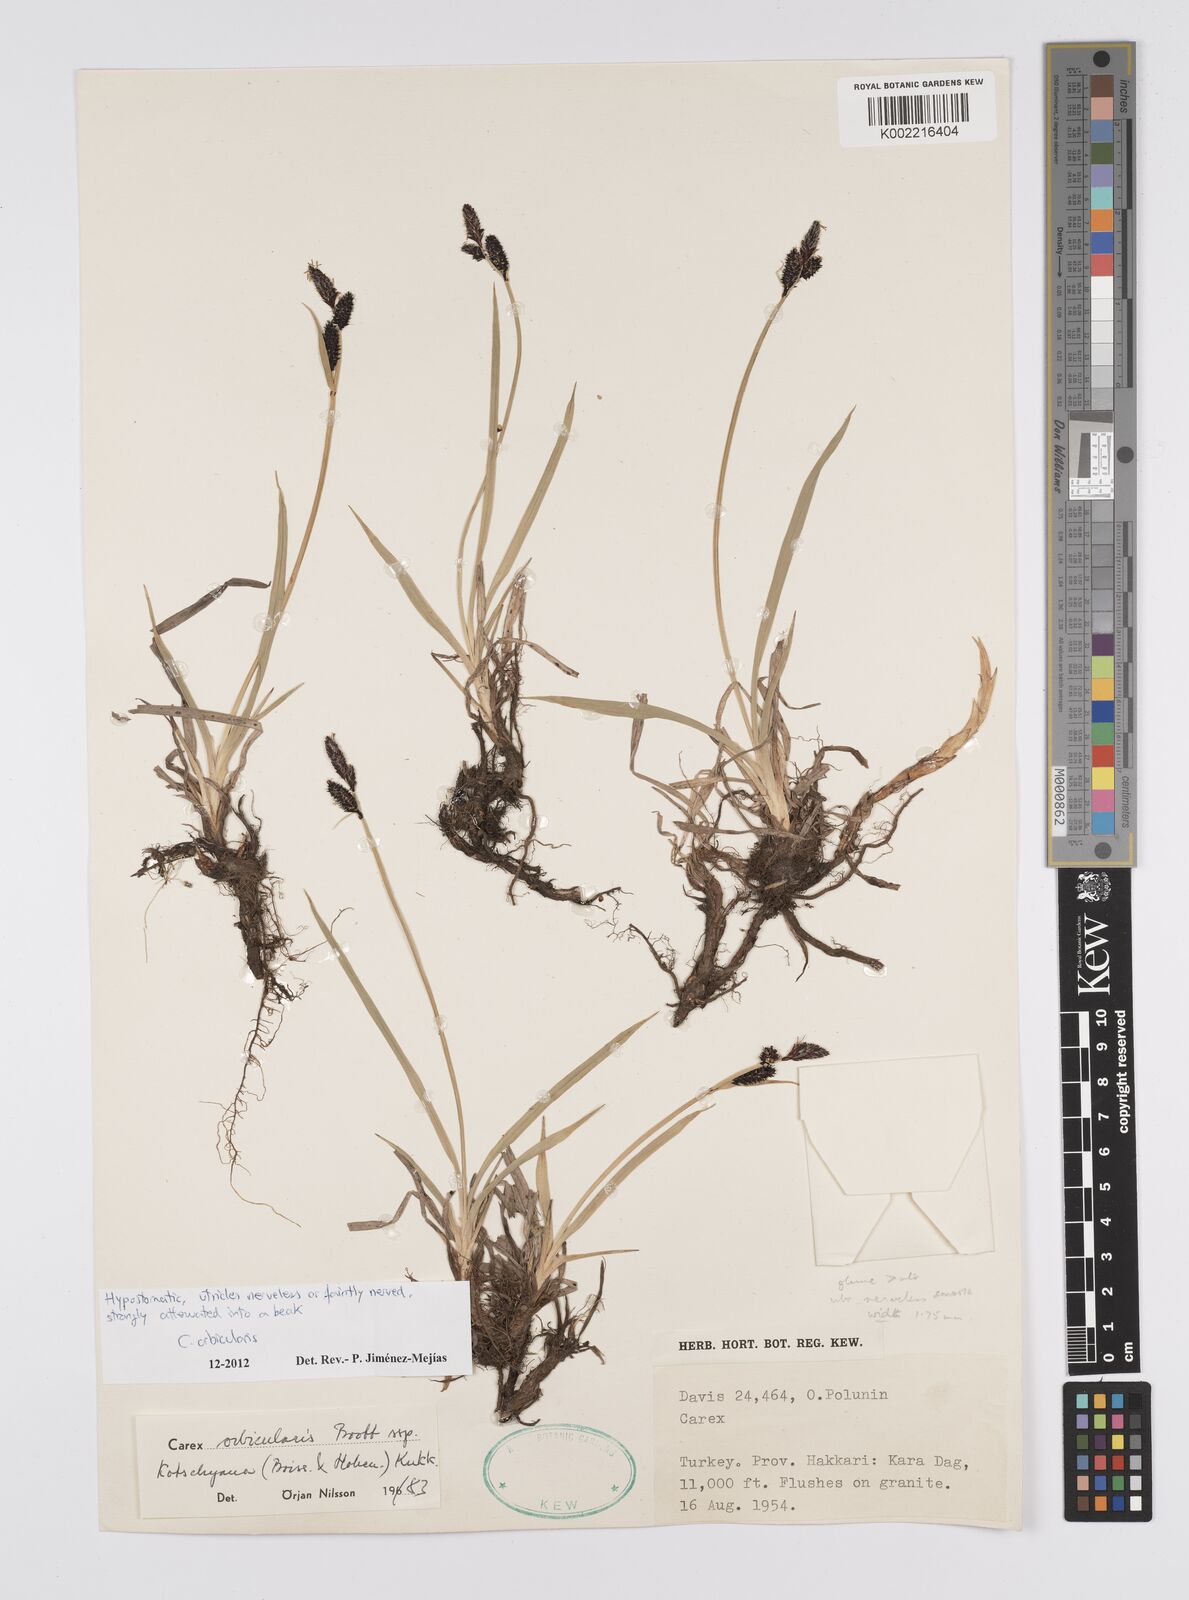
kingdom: Plantae
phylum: Tracheophyta
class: Liliopsida
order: Poales
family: Cyperaceae
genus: Carex
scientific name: Carex orbicularis
